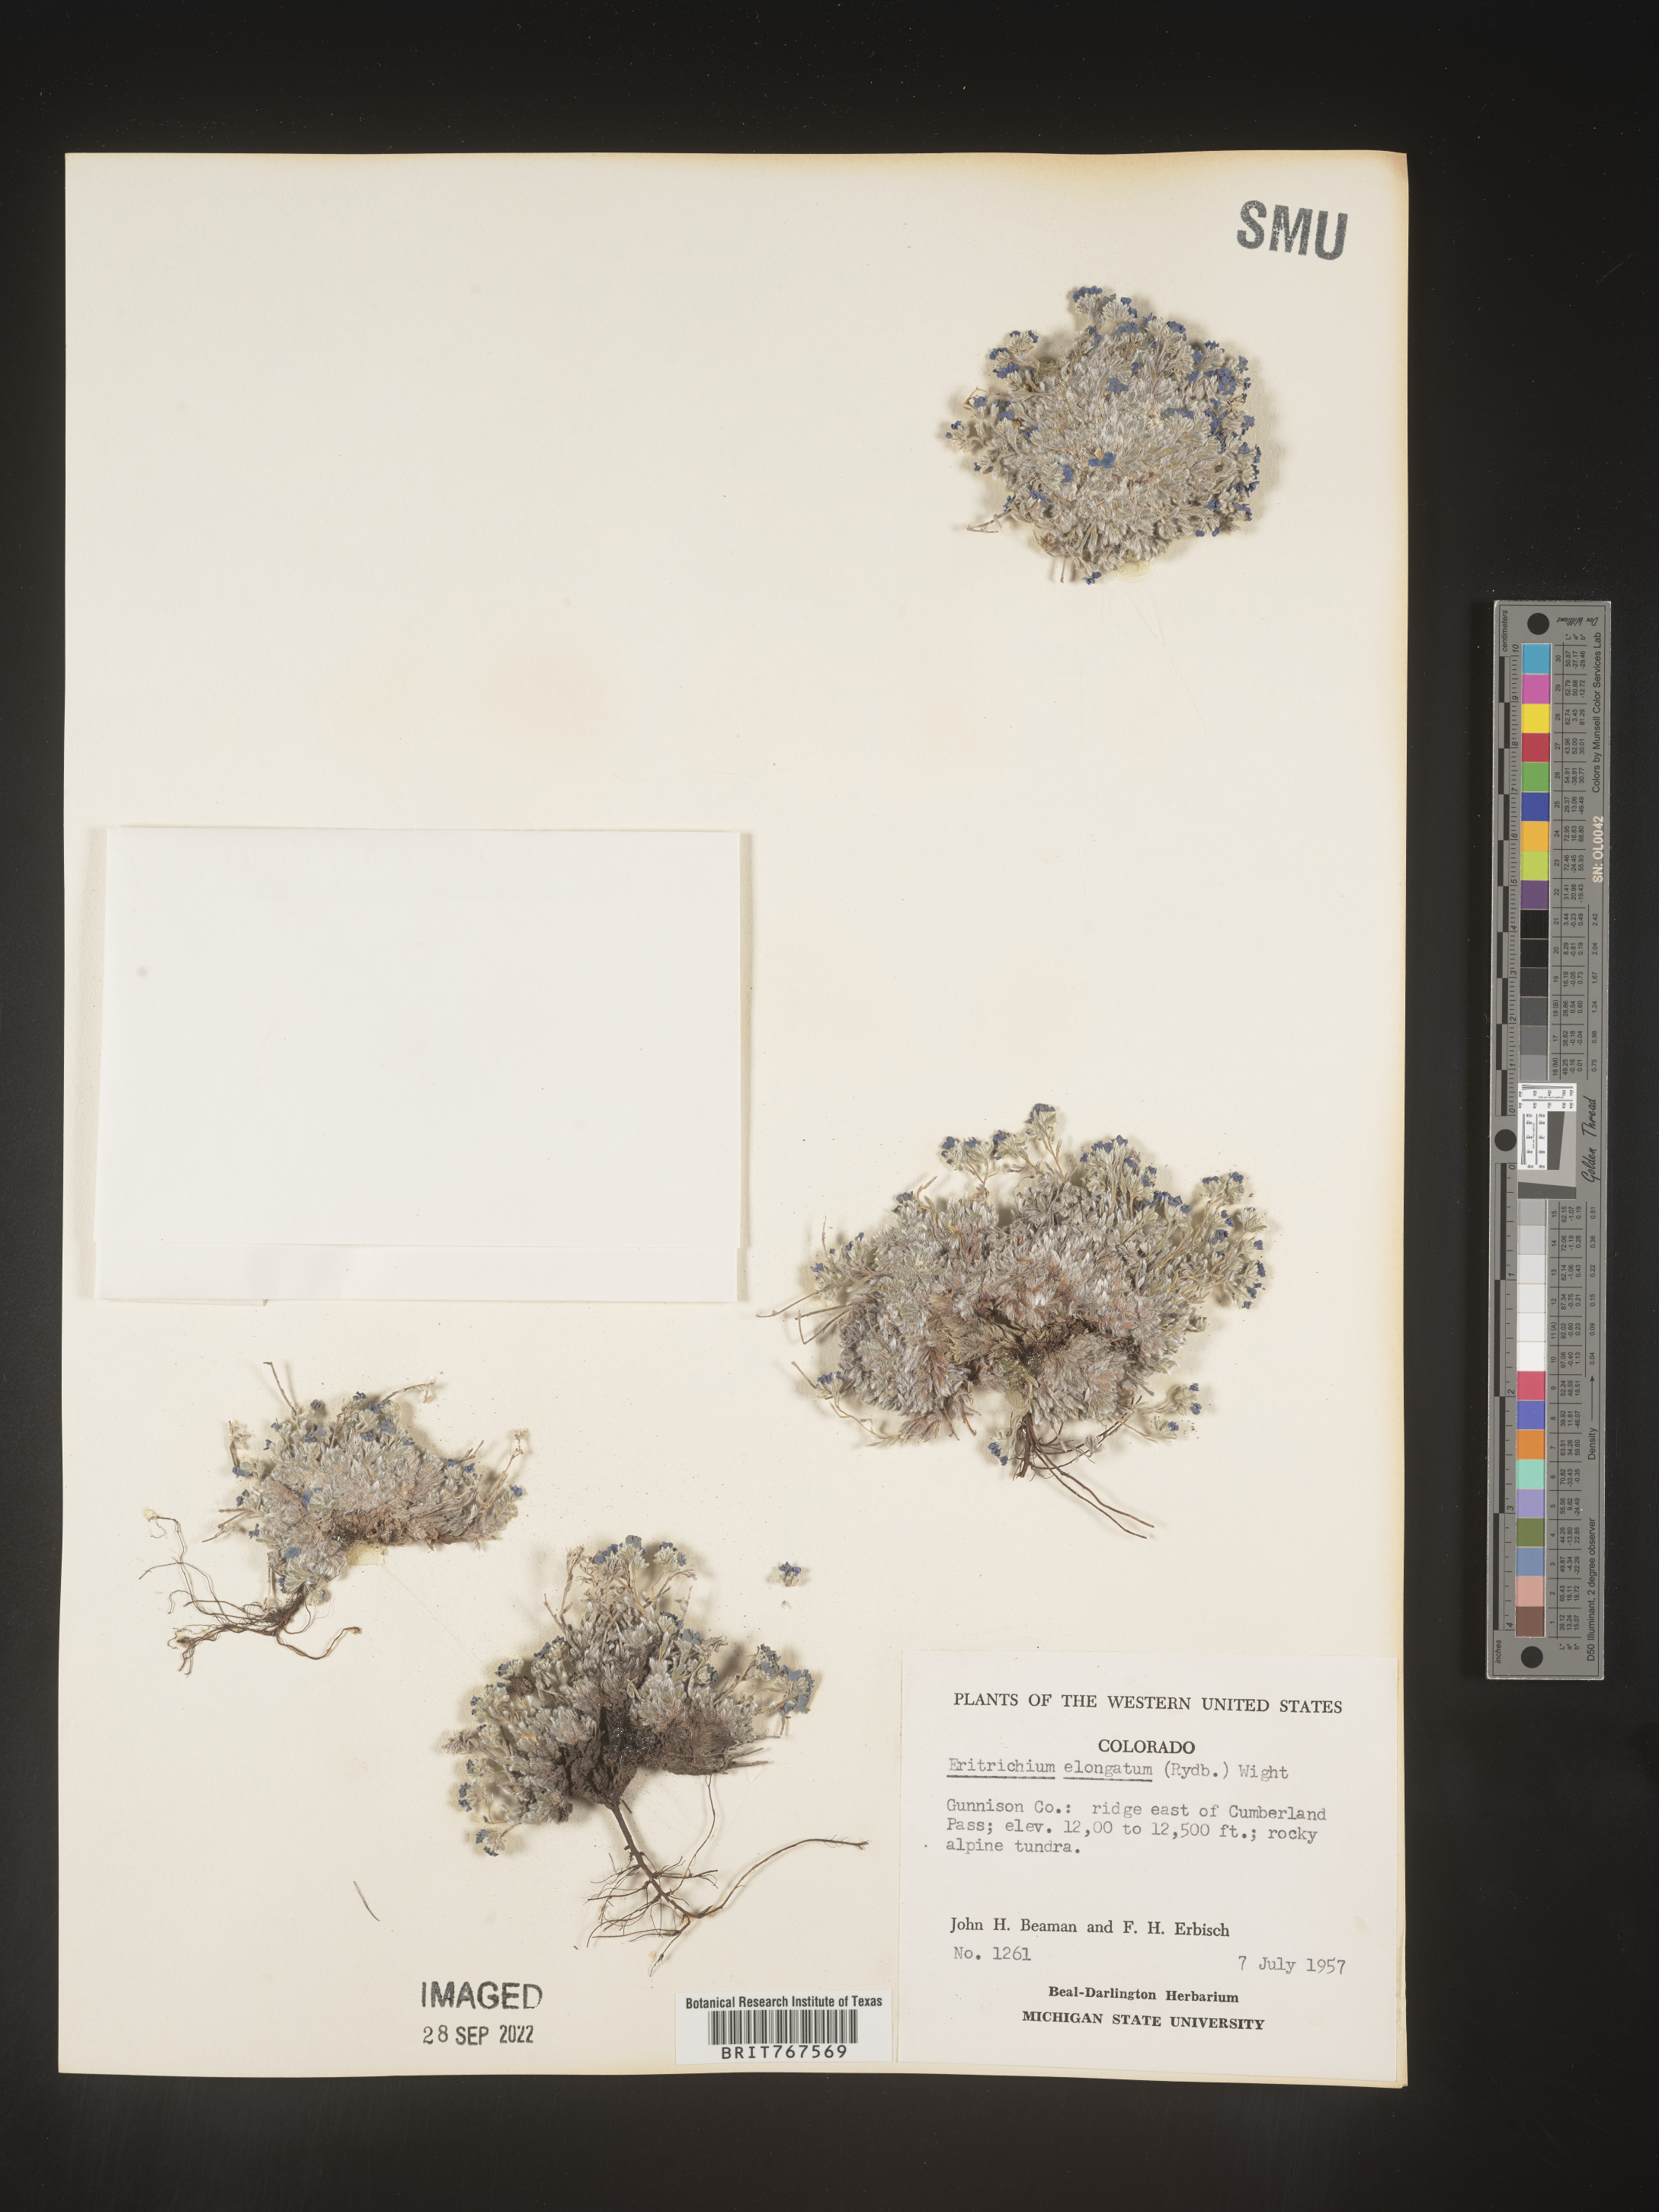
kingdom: Plantae
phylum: Tracheophyta
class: Magnoliopsida
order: Boraginales
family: Boraginaceae
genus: Eritrichium
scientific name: Eritrichium
